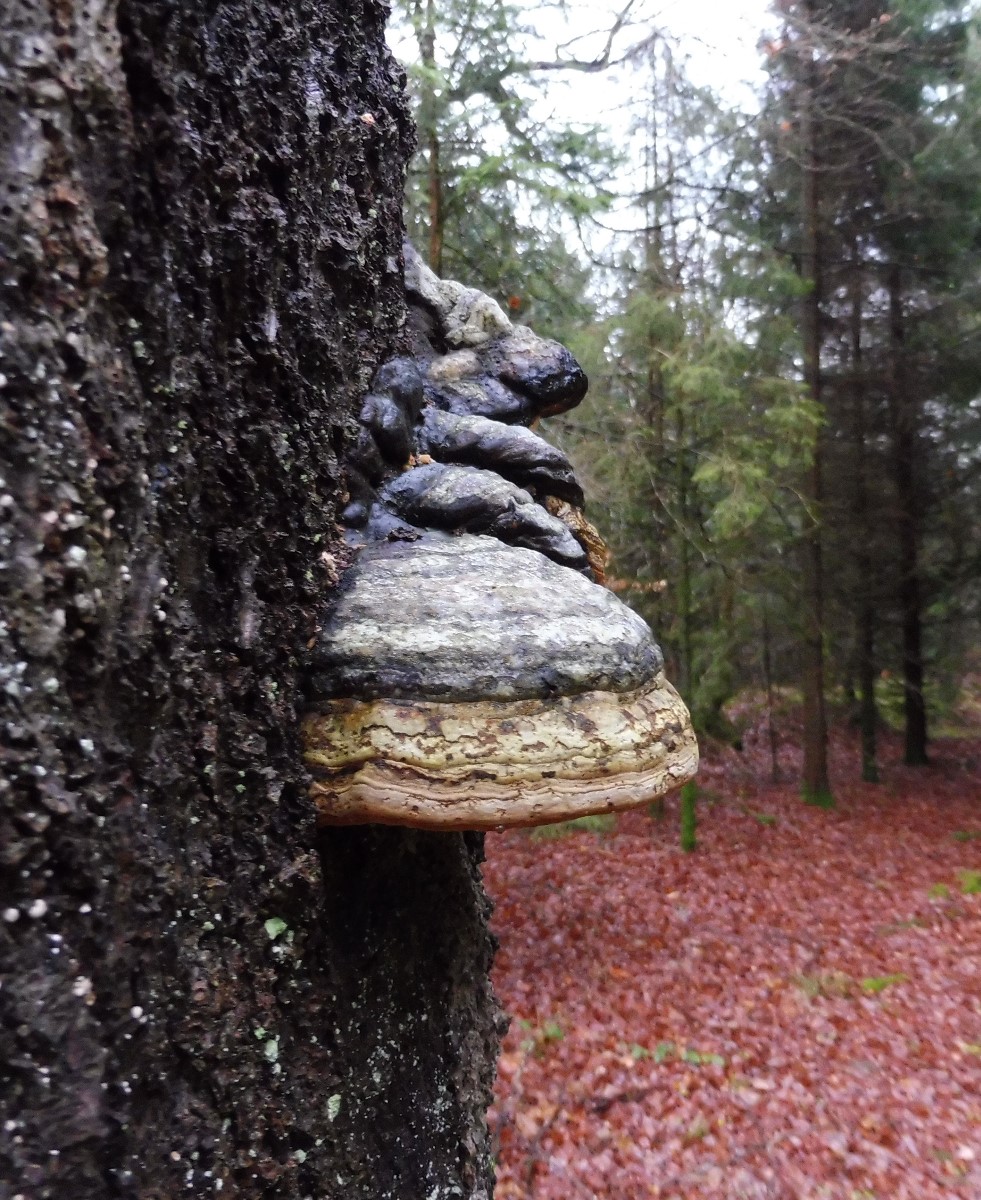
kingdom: Fungi
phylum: Basidiomycota
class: Agaricomycetes
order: Polyporales
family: Polyporaceae
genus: Fomes
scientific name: Fomes fomentarius
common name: tøndersvamp
